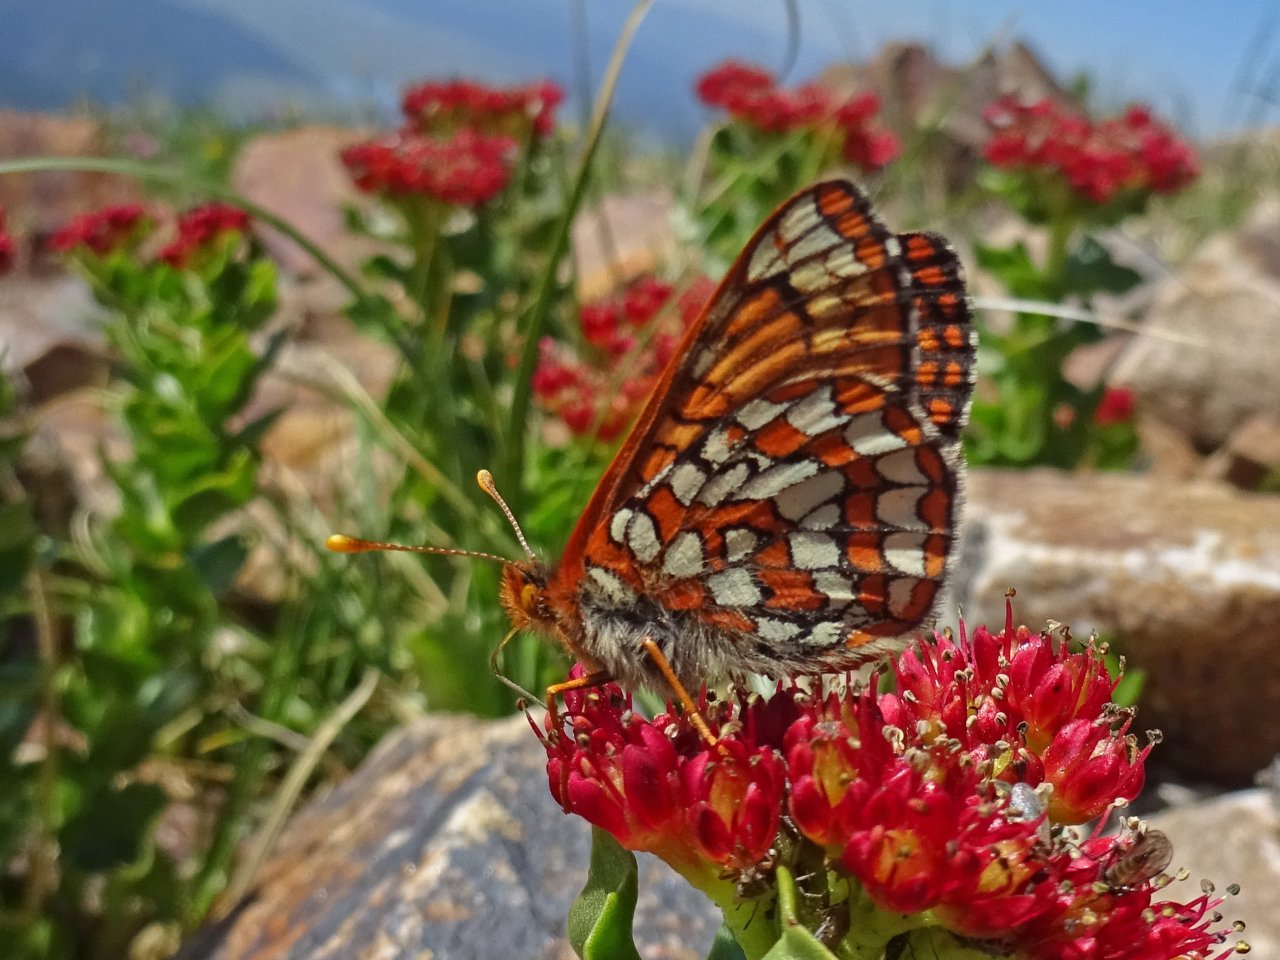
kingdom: Animalia
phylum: Arthropoda
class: Insecta
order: Lepidoptera
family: Nymphalidae
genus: Occidryas
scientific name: Occidryas anicia
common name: Anicia Checkerspot
